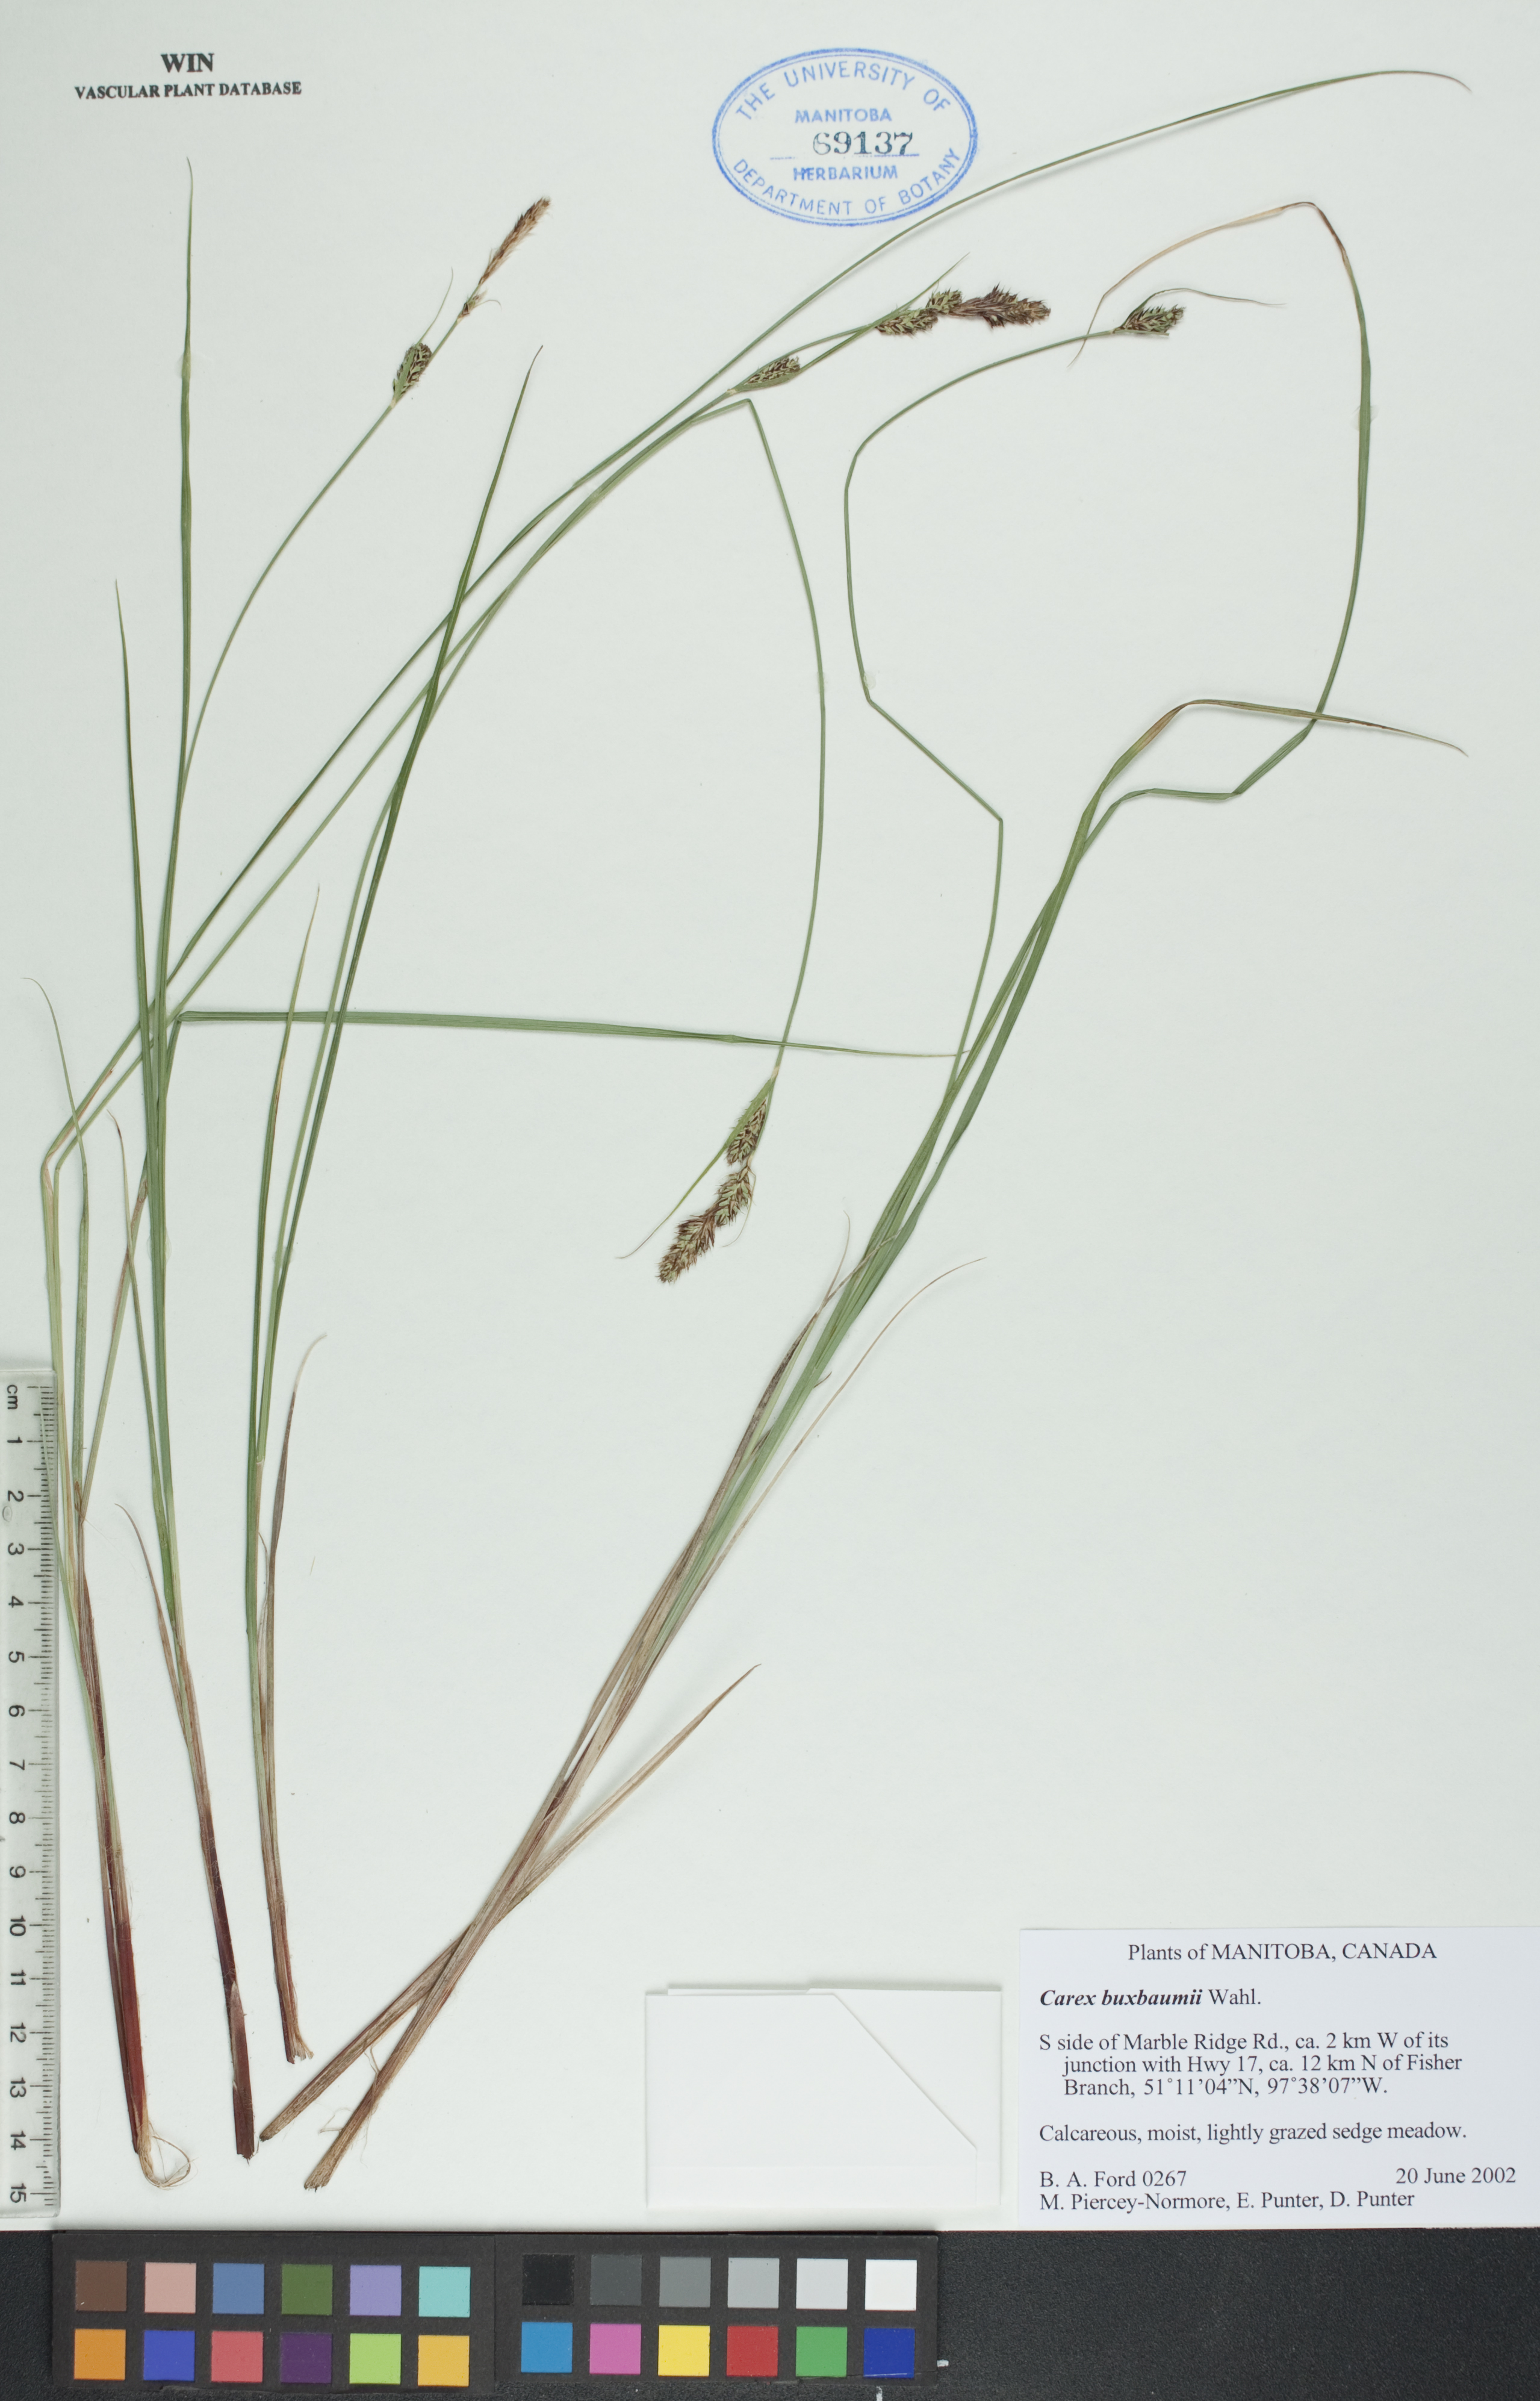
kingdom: Plantae
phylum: Tracheophyta
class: Liliopsida
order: Poales
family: Cyperaceae
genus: Carex
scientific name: Carex buxbaumii
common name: Club sedge
